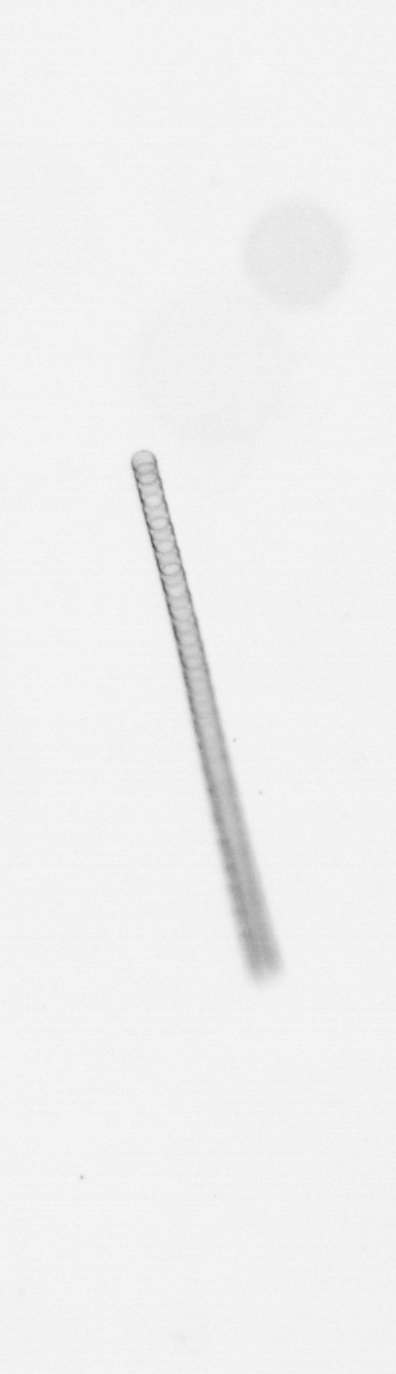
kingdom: Chromista
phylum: Ochrophyta
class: Bacillariophyceae
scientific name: Bacillariophyceae
